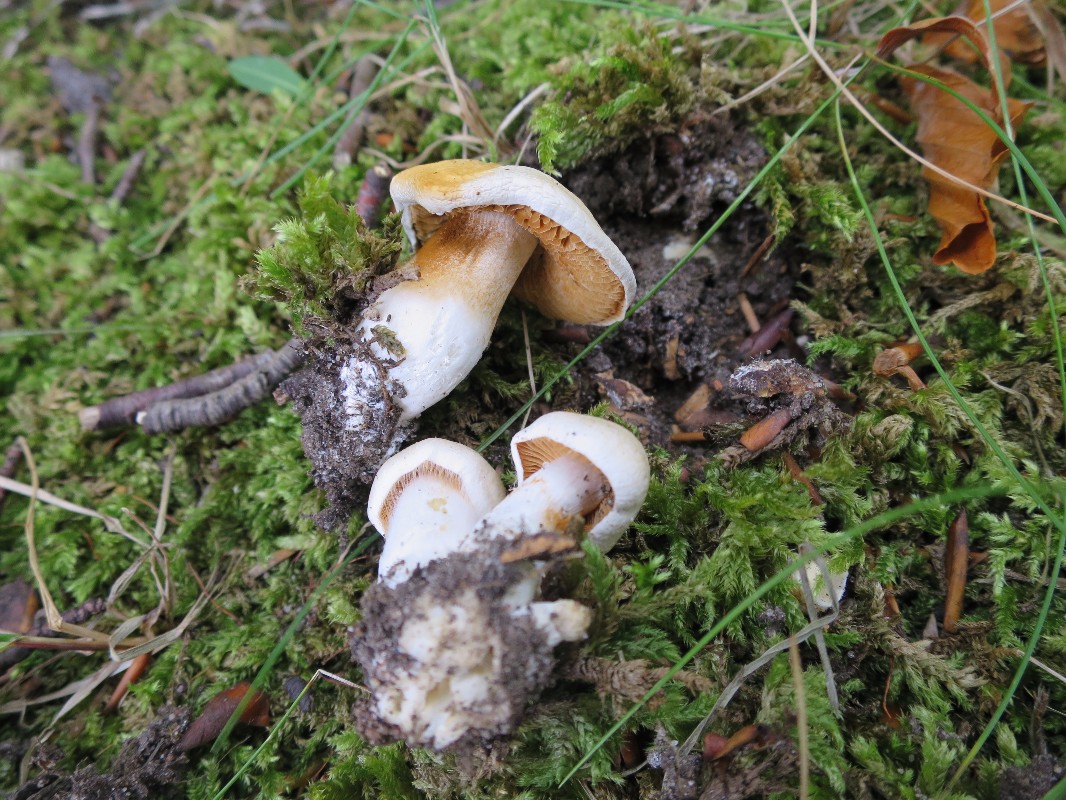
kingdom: Fungi
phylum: Basidiomycota
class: Agaricomycetes
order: Agaricales
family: Cortinariaceae
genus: Thaxterogaster
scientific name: Thaxterogaster barbatus
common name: elfenbens-slørhat
